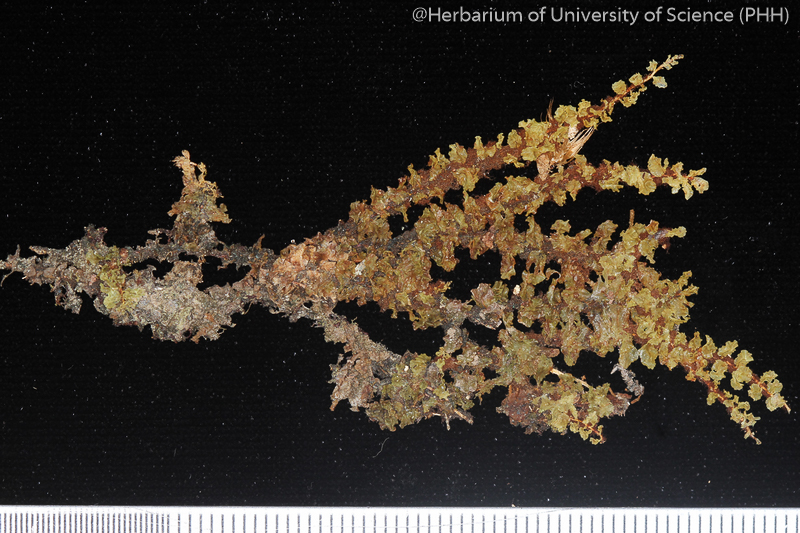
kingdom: Plantae
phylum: Bryophyta
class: Bryopsida
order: Bryales
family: Mniaceae
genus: Orthomnion
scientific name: Orthomnion dilatatum
